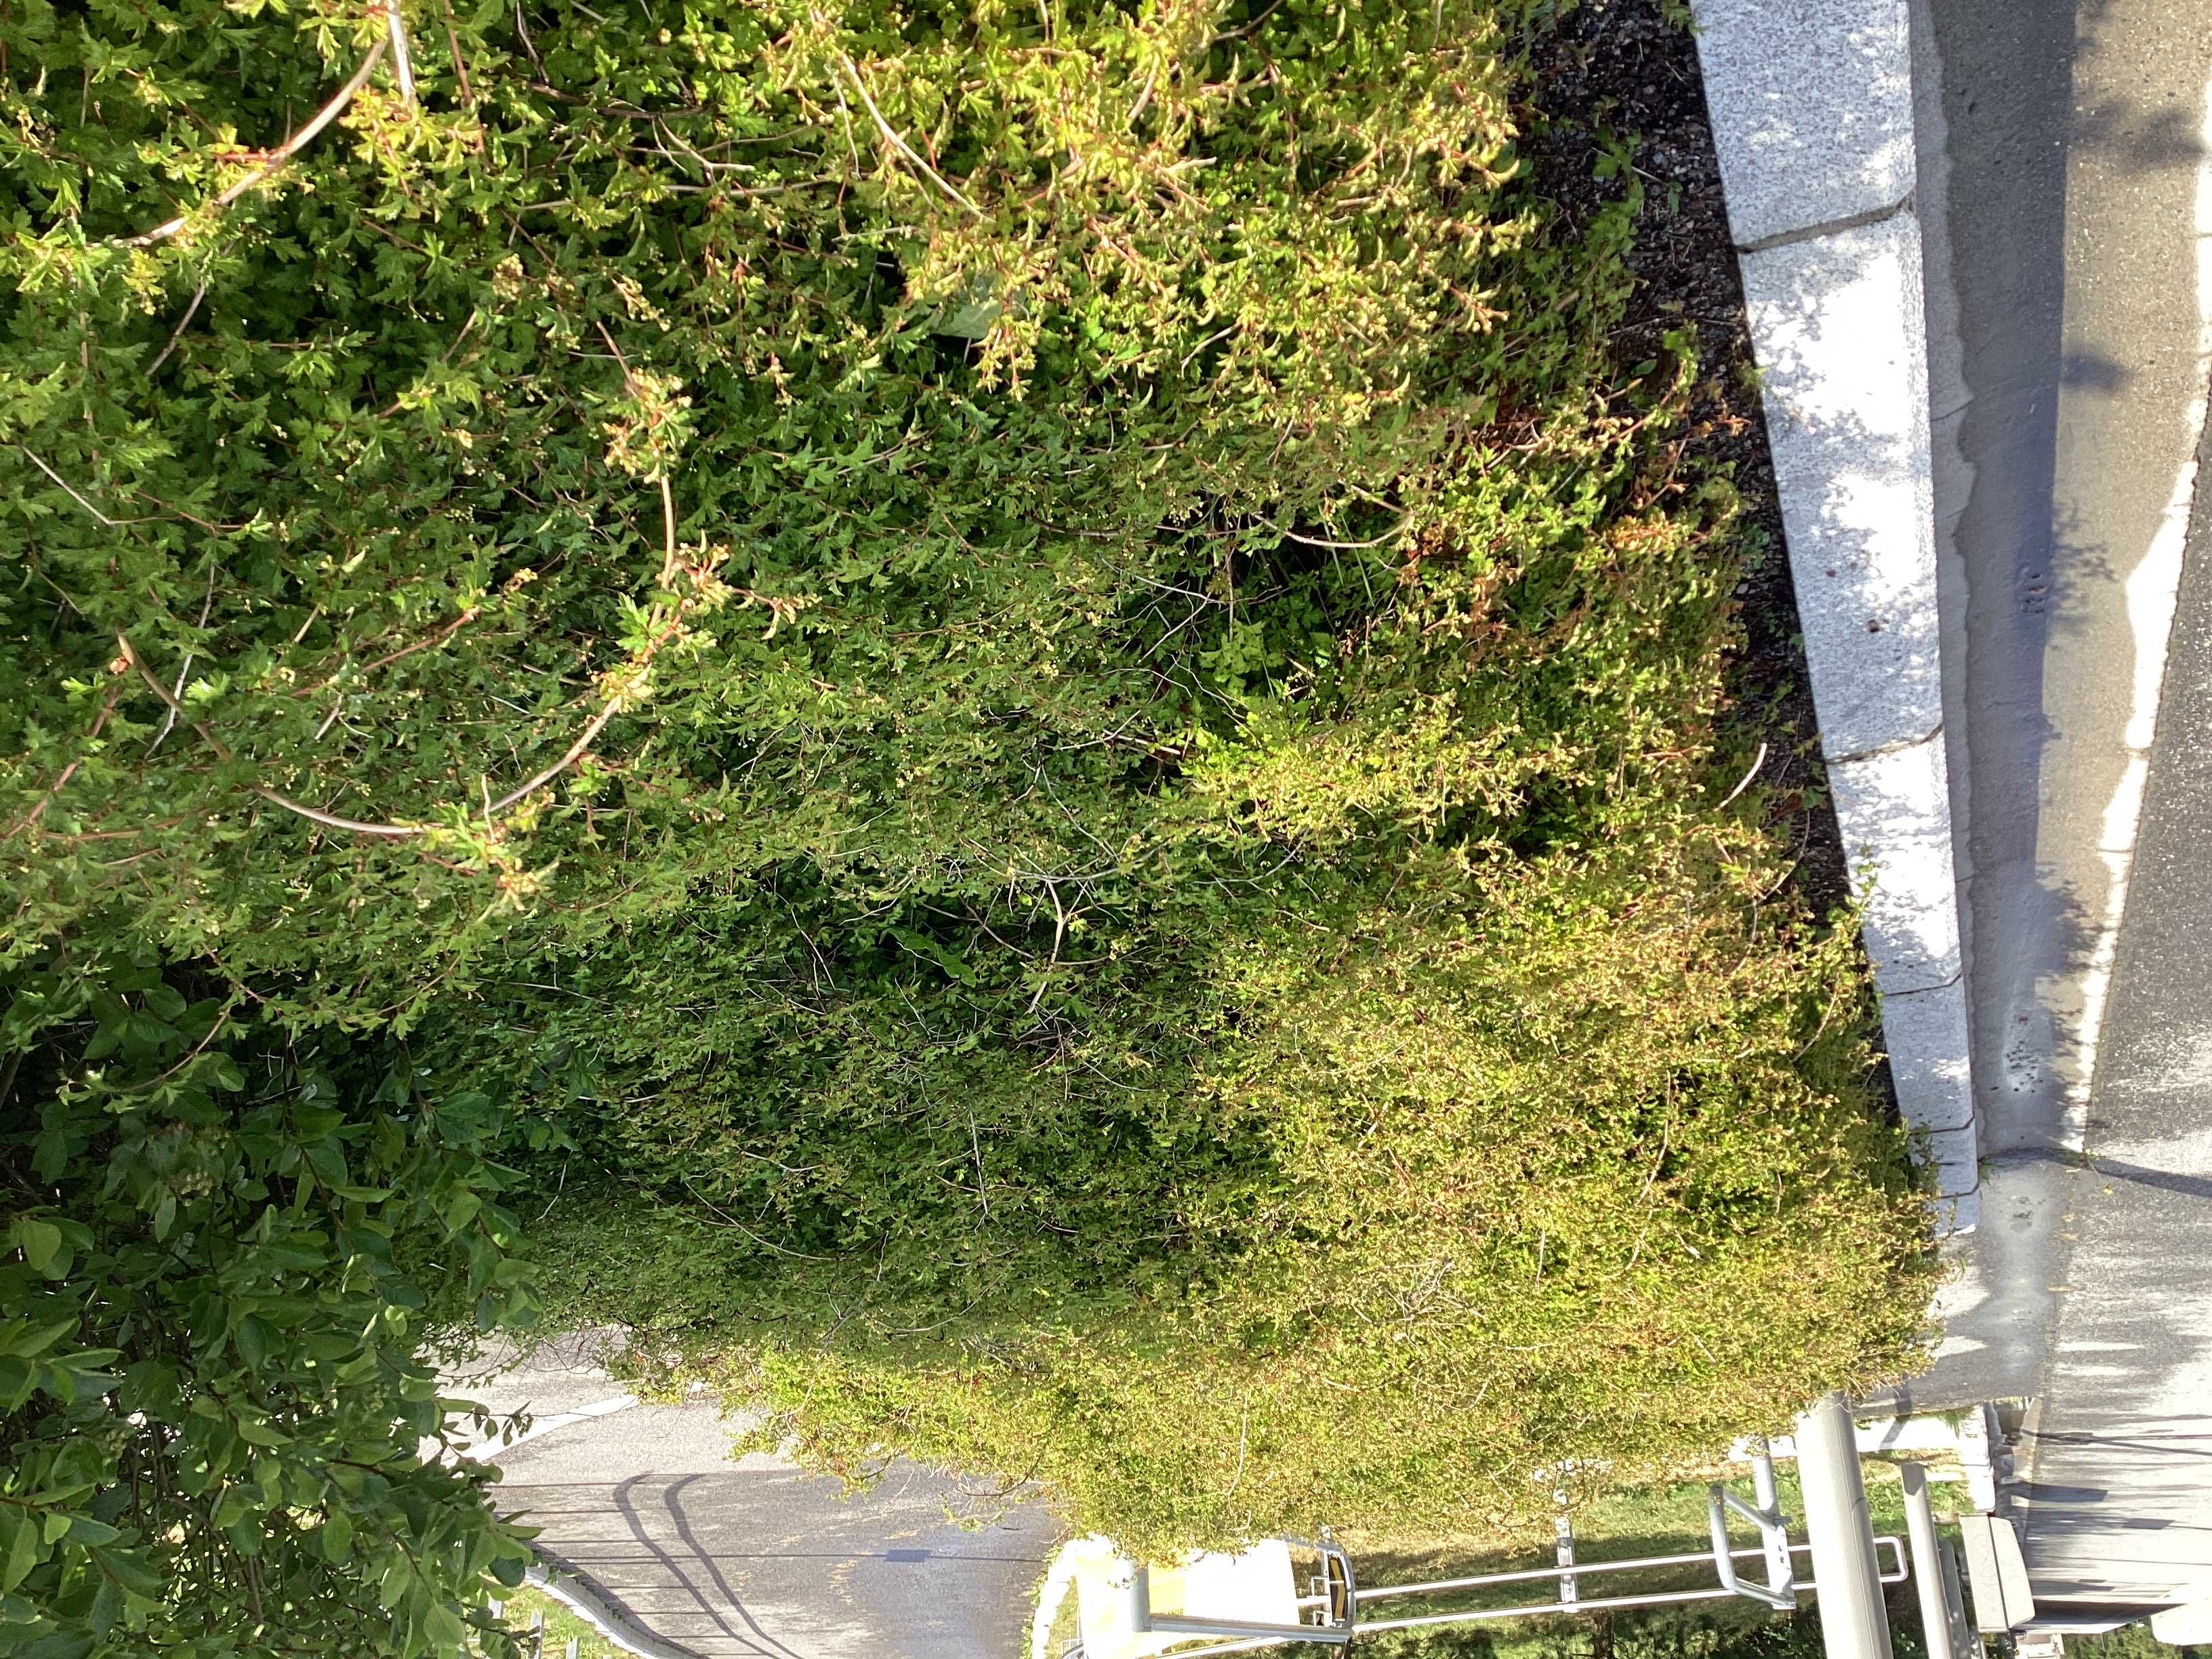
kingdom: Plantae
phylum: Tracheophyta
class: Magnoliopsida
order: Rosales
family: Rosaceae
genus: Neillia
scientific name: Neillia incisa
